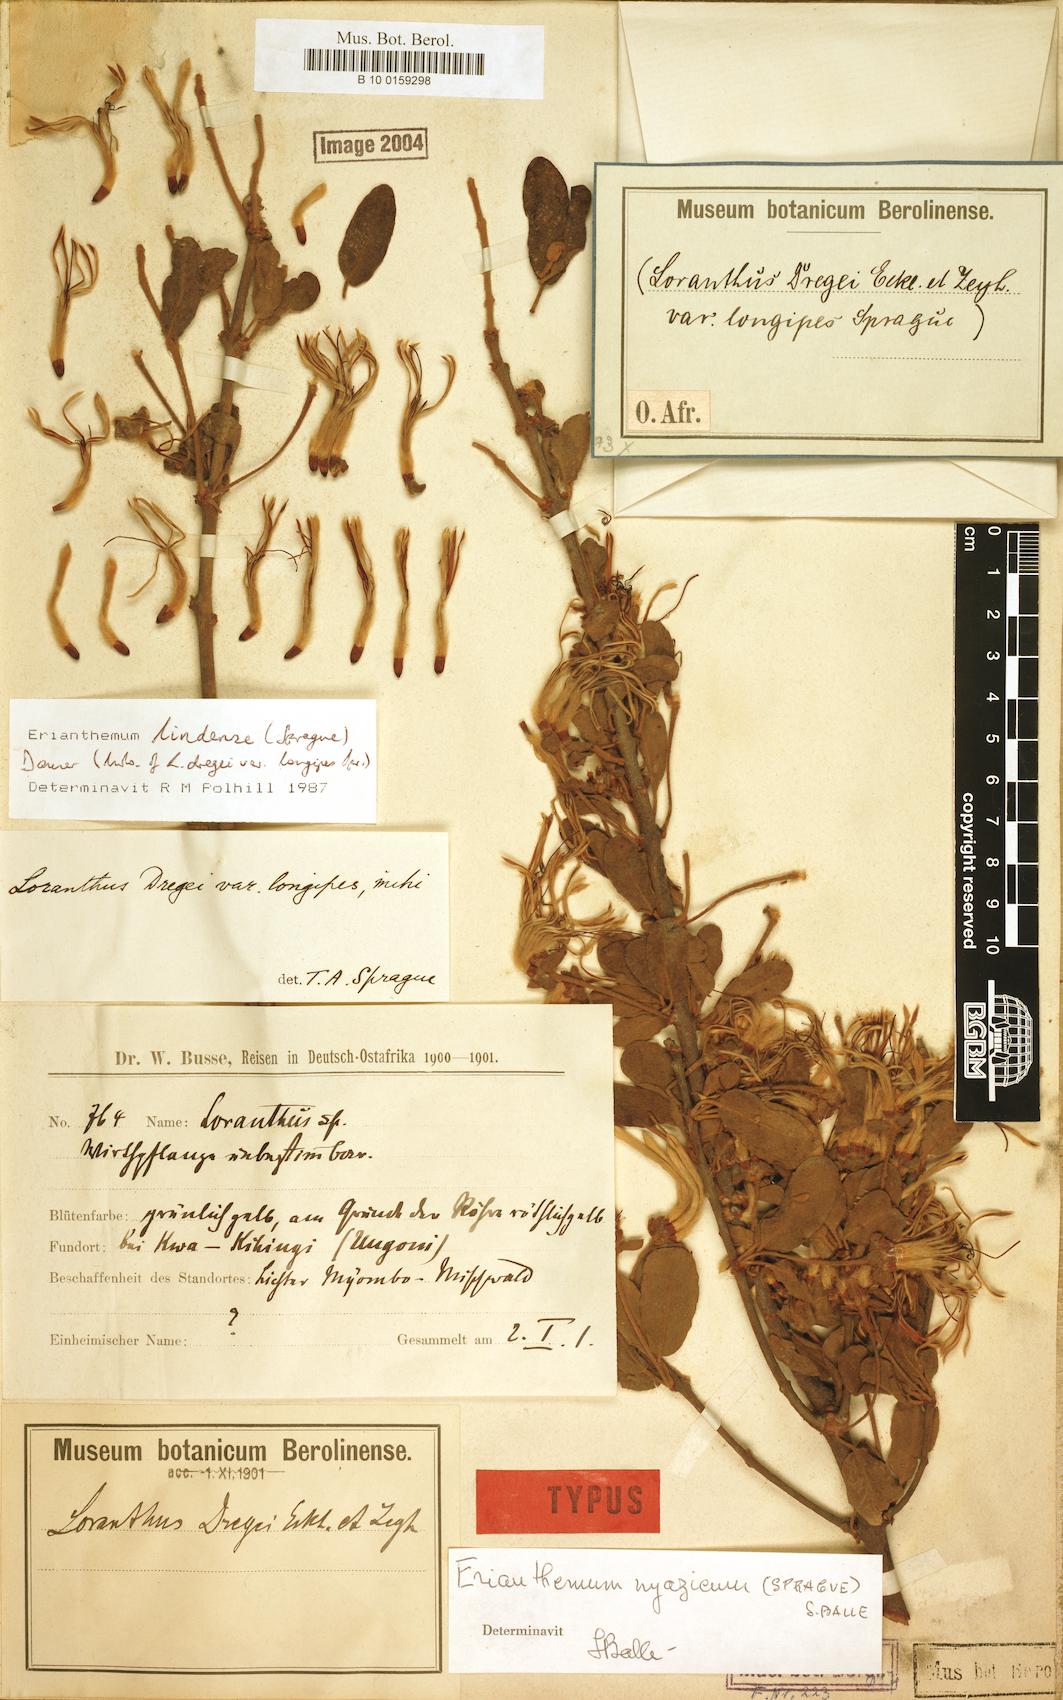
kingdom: Plantae
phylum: Tracheophyta
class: Magnoliopsida
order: Santalales
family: Loranthaceae
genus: Erianthemum
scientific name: Erianthemum lindense
